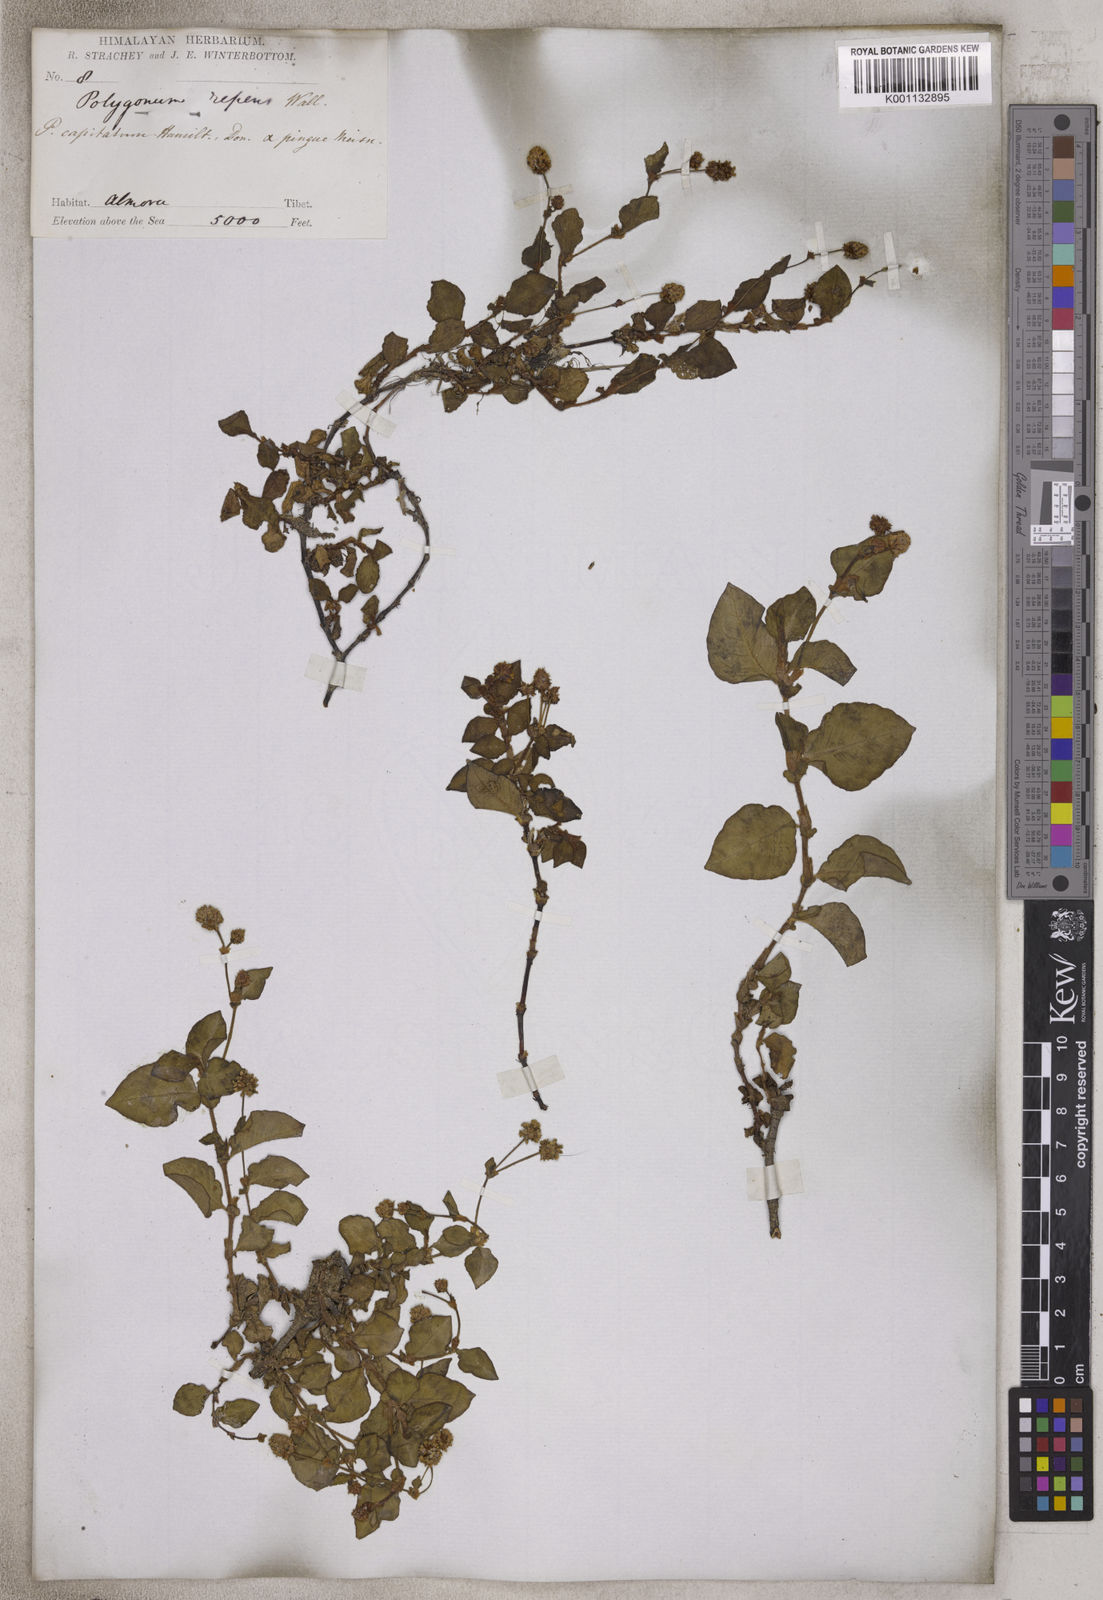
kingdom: Plantae
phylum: Tracheophyta
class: Magnoliopsida
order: Caryophyllales
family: Polygonaceae
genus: Polygonum
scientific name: Polygonum
